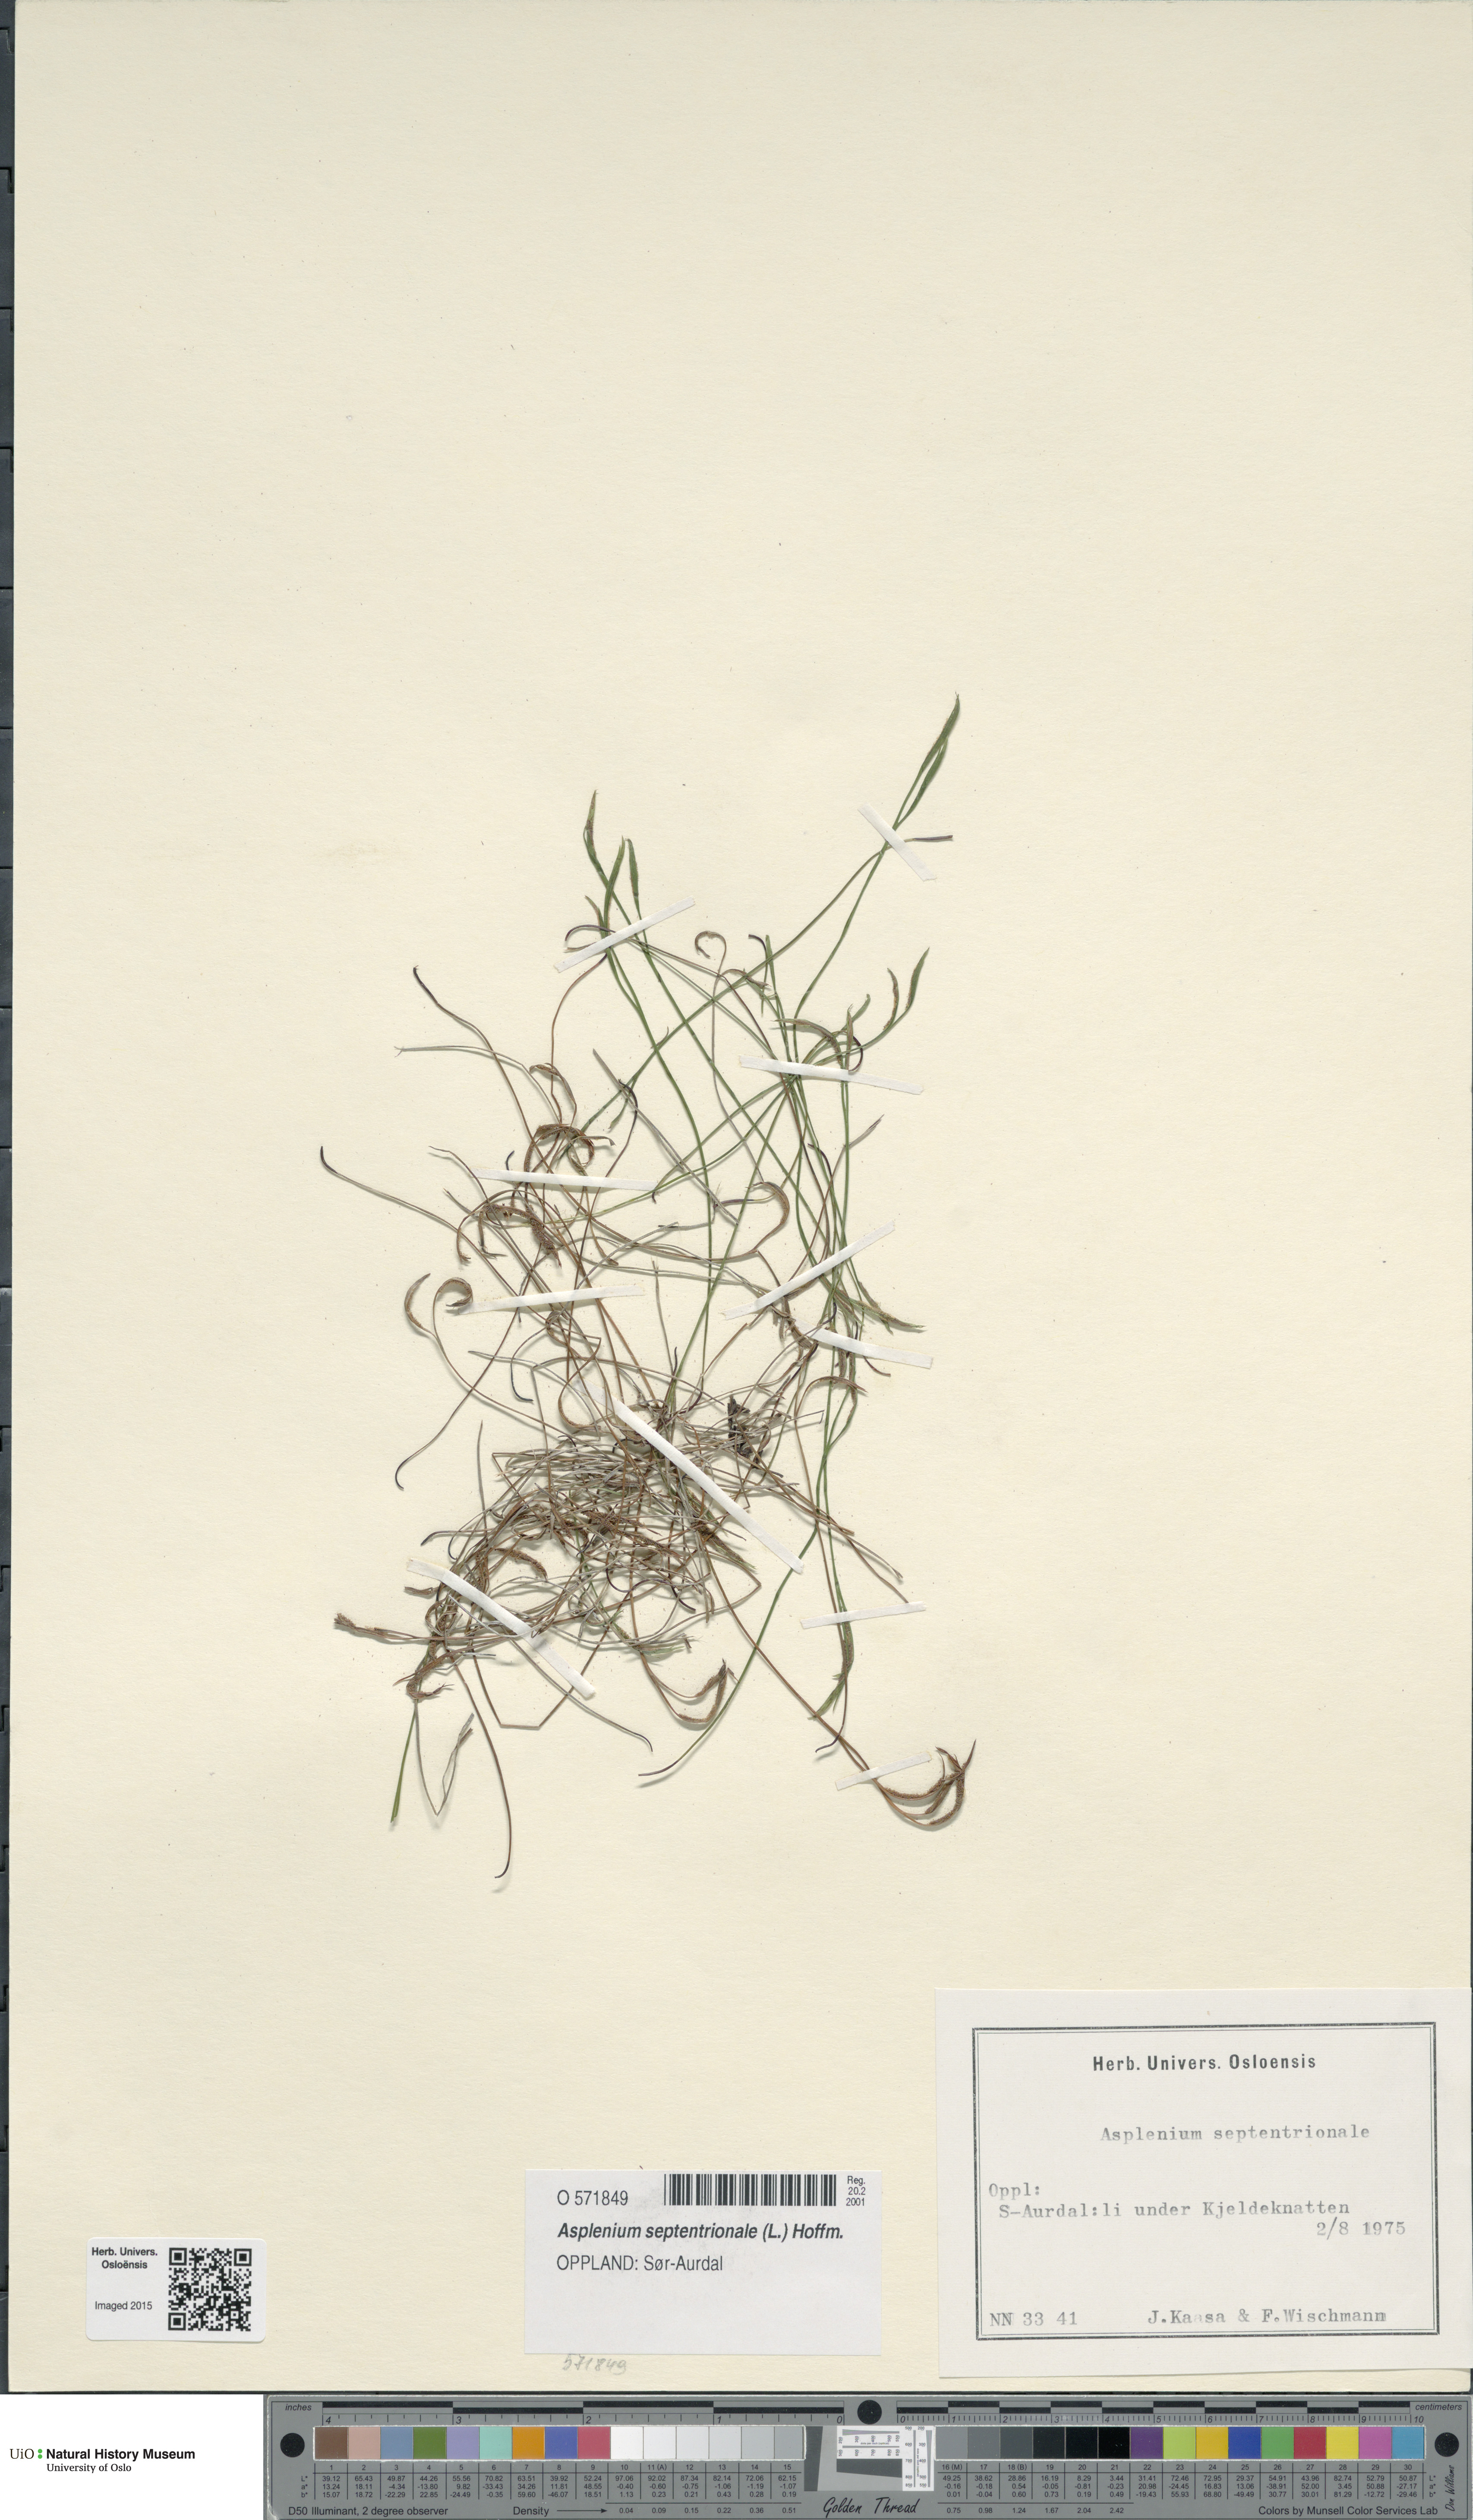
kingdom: Plantae
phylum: Tracheophyta
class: Polypodiopsida
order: Polypodiales
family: Aspleniaceae
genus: Asplenium
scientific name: Asplenium septentrionale
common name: Forked spleenwort
